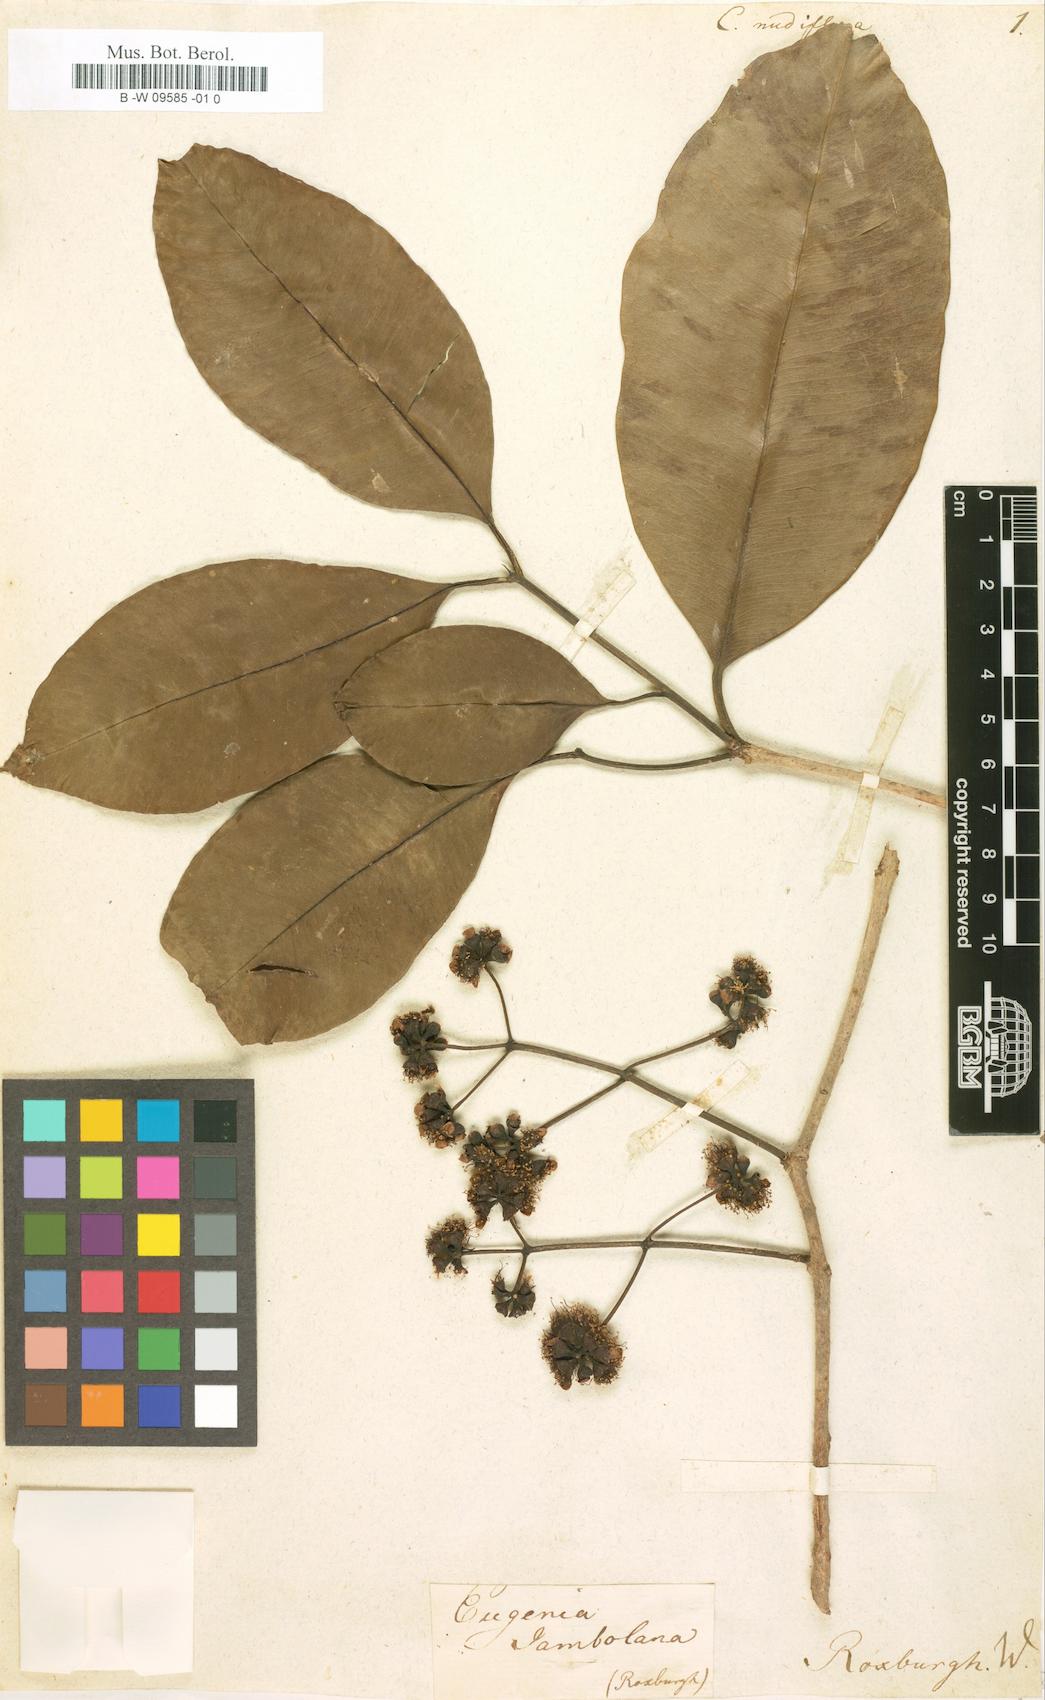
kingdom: Plantae
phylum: Tracheophyta
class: Magnoliopsida
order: Myrtales
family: Myrtaceae
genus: Calyptranthes
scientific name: Calyptranthes
